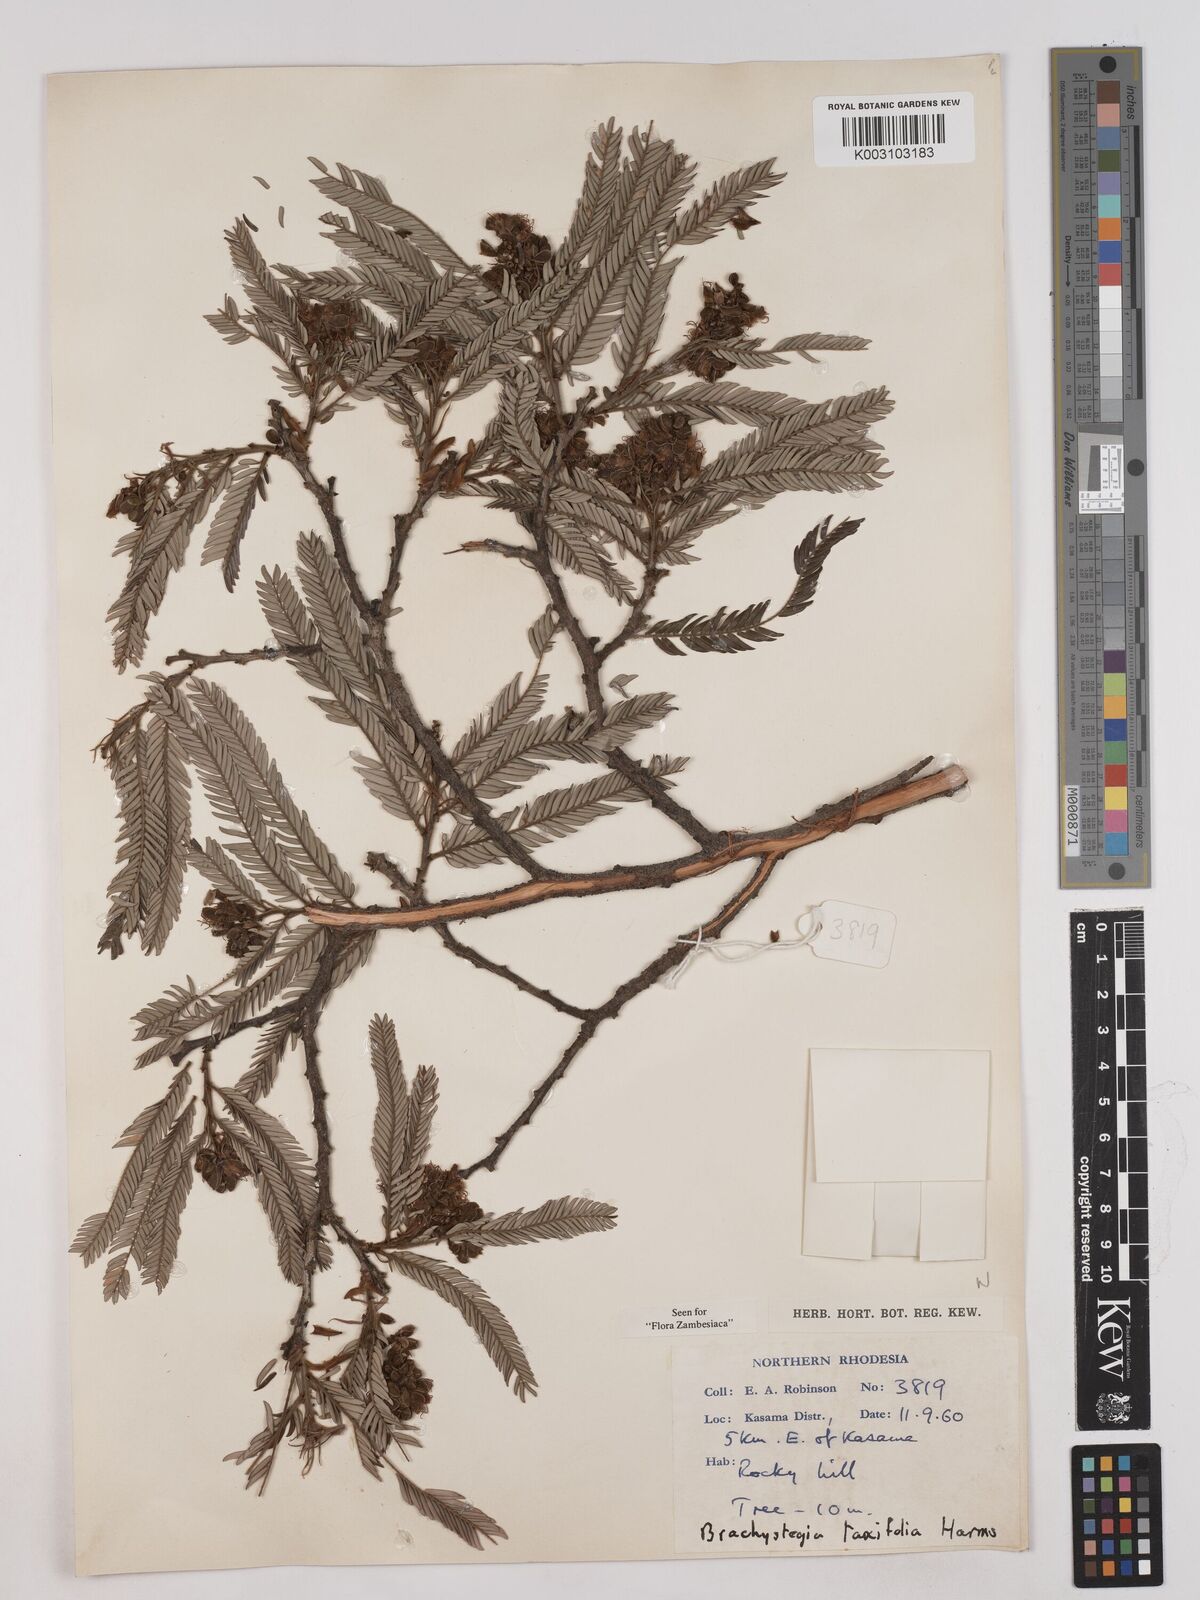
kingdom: Plantae
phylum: Tracheophyta
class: Magnoliopsida
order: Fabales
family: Fabaceae
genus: Brachystegia
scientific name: Brachystegia taxifolia
